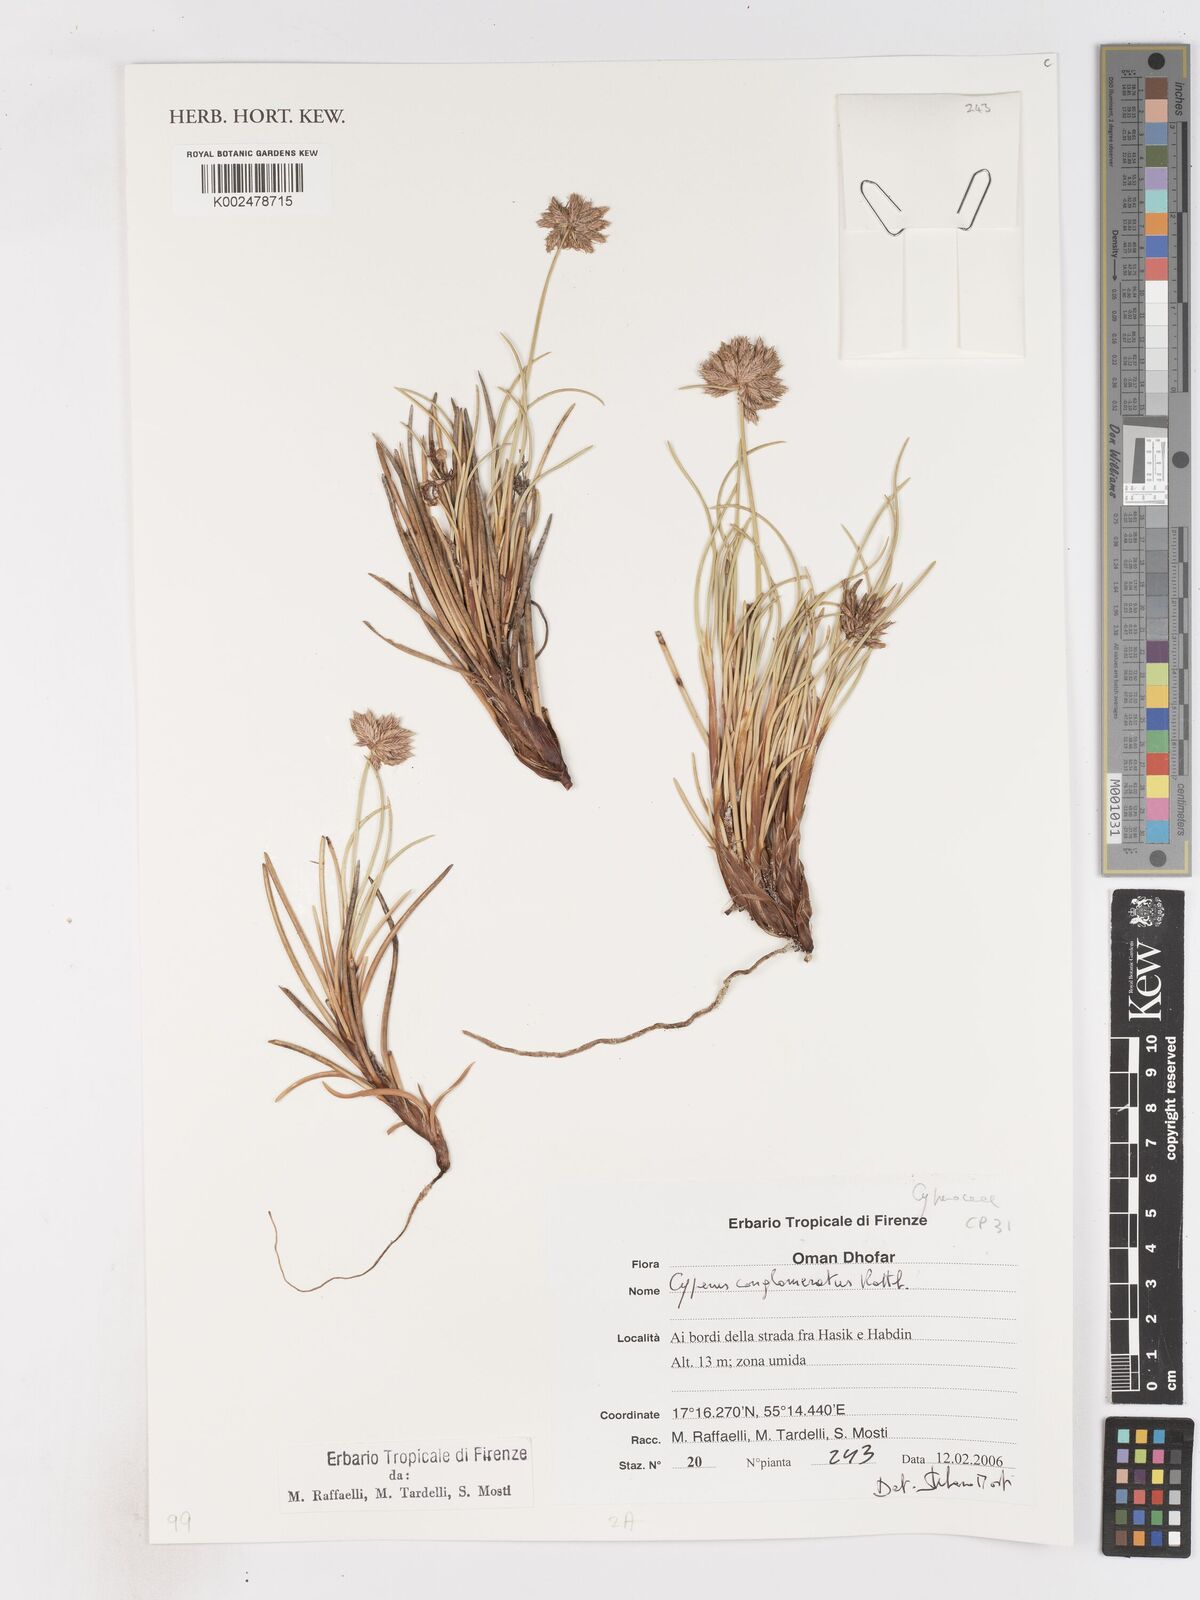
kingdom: Plantae
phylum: Tracheophyta
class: Liliopsida
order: Poales
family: Cyperaceae
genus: Cyperus
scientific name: Cyperus conglomeratus
